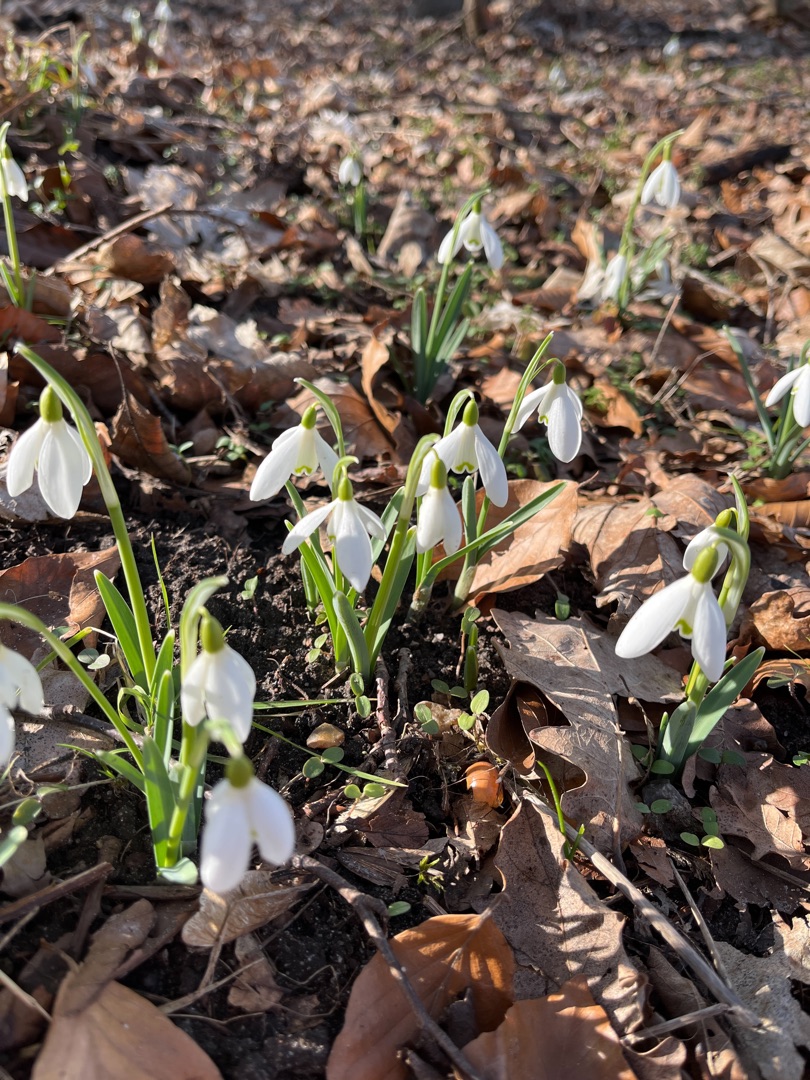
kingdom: Plantae
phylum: Tracheophyta
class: Liliopsida
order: Asparagales
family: Amaryllidaceae
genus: Galanthus
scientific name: Galanthus nivalis
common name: Vintergæk
